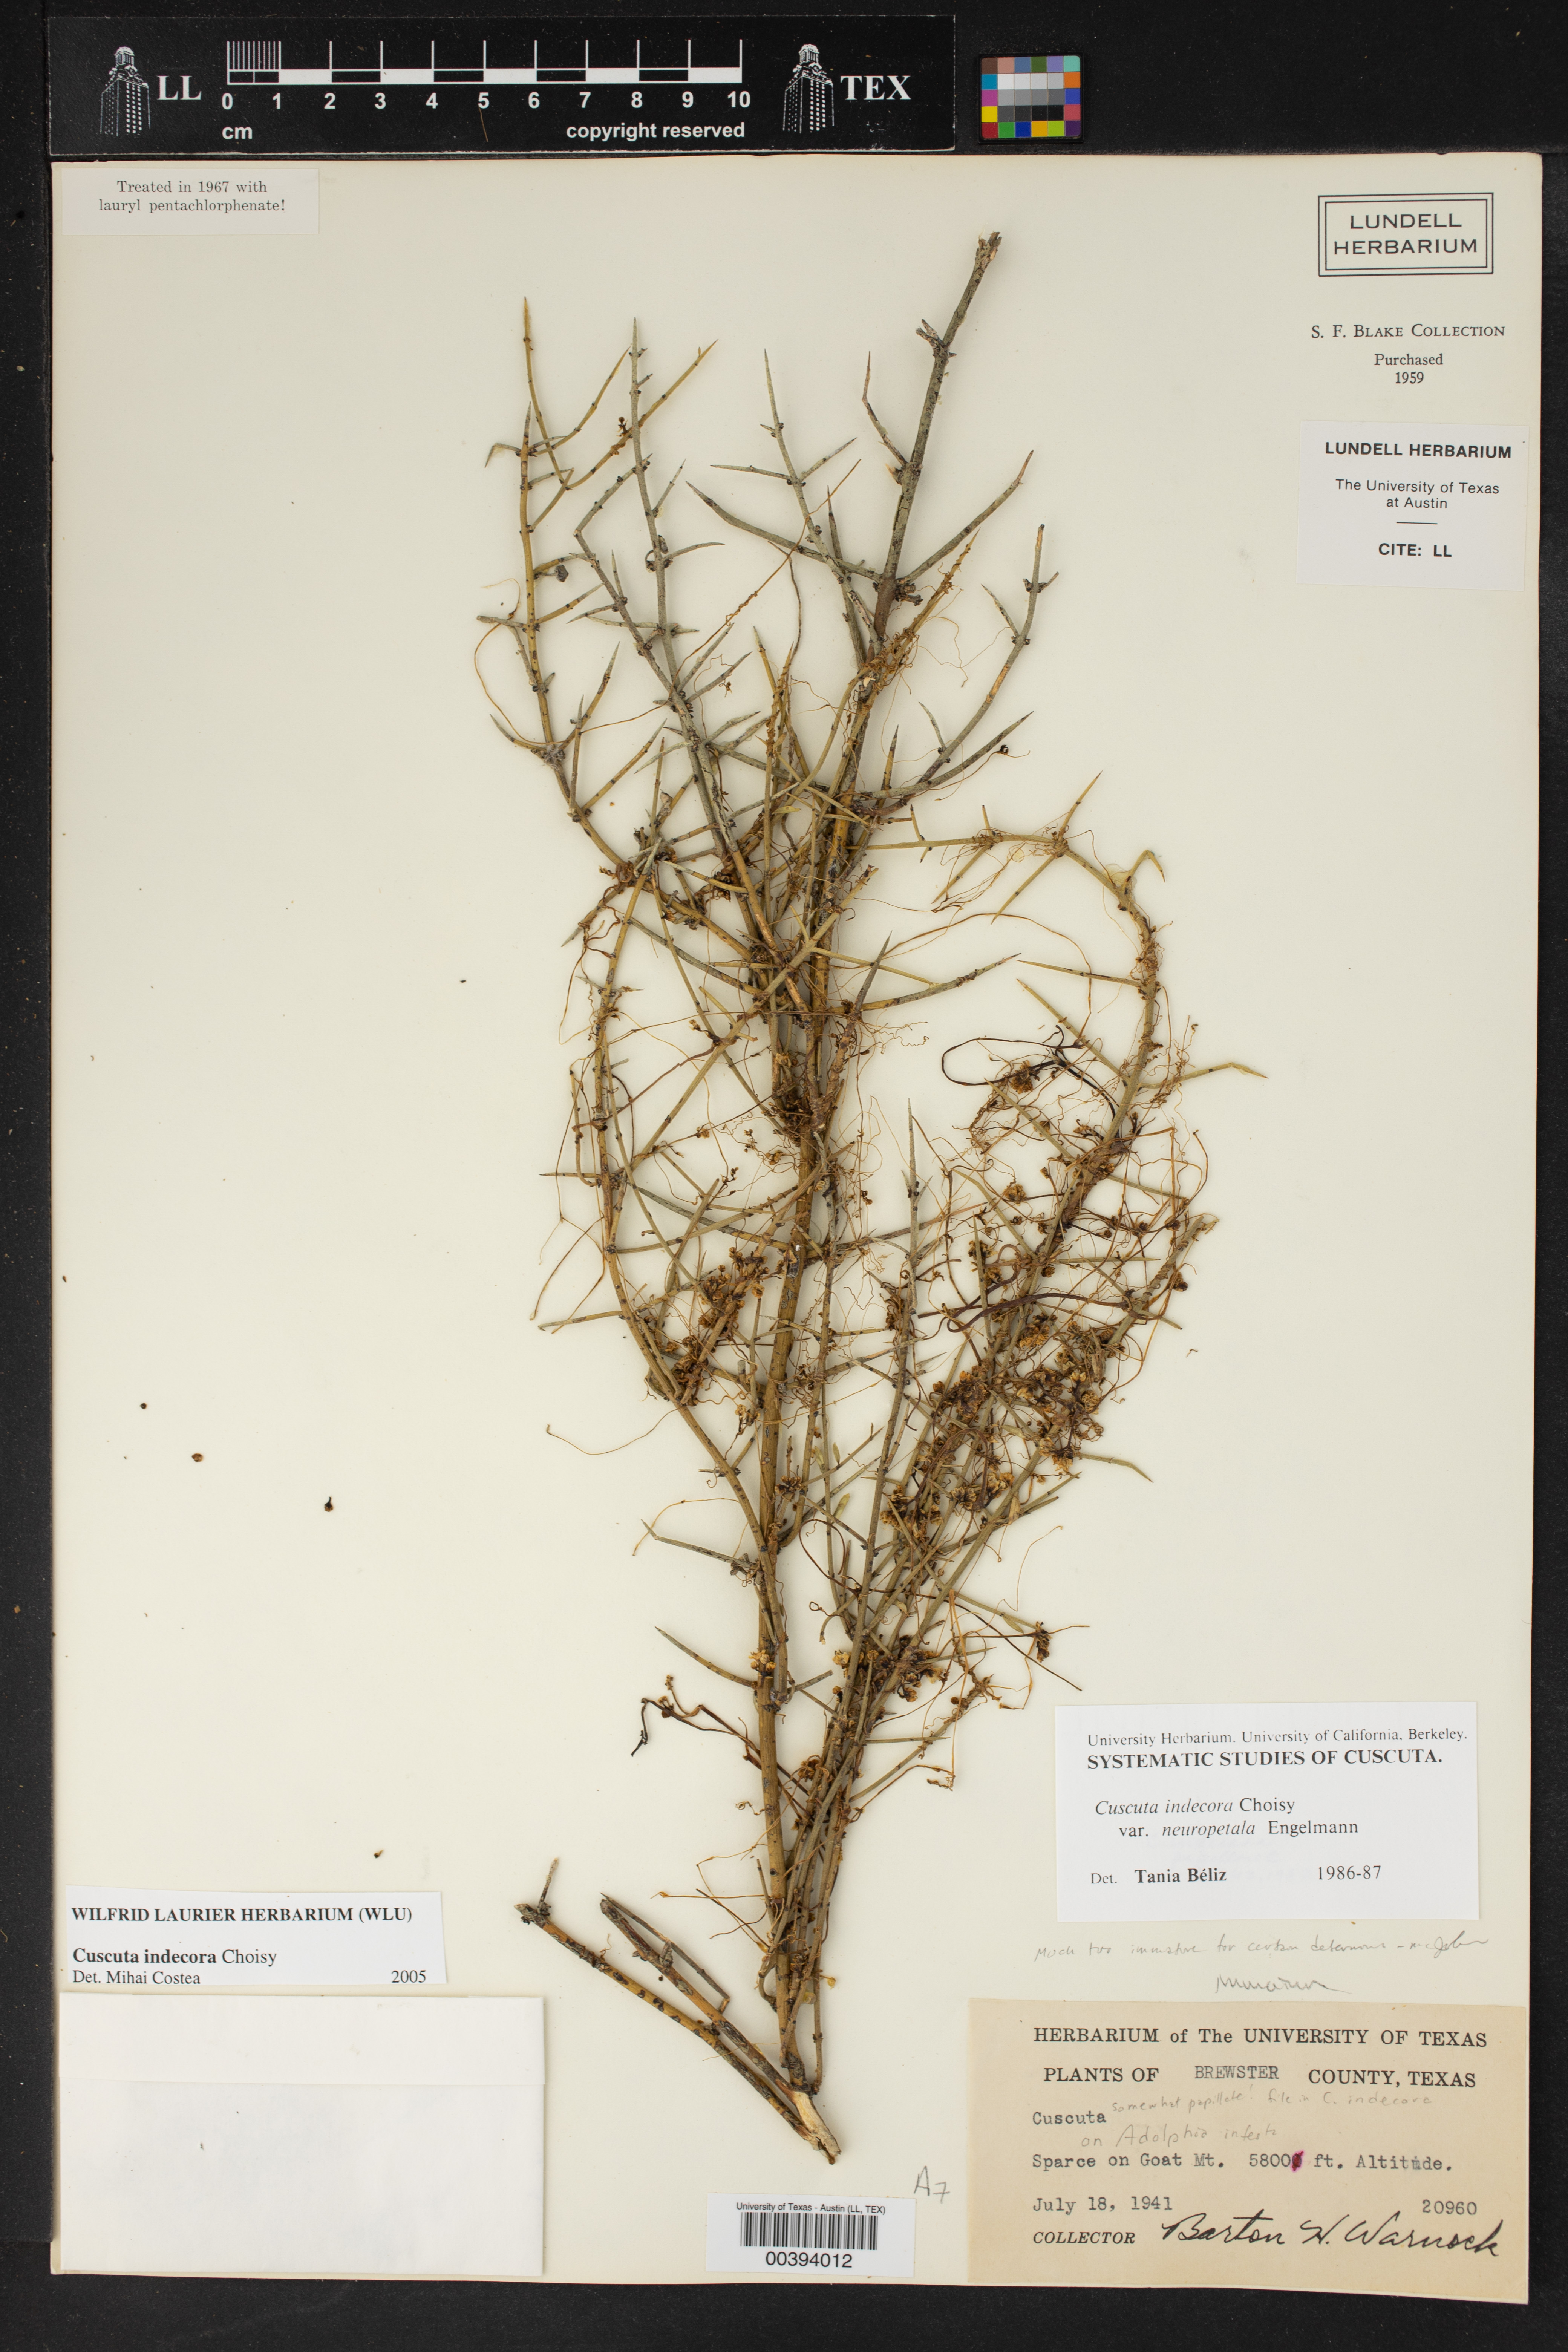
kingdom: Plantae
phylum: Tracheophyta
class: Magnoliopsida
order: Solanales
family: Convolvulaceae
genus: Cuscuta
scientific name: Cuscuta indecora
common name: Large-seed dodder
